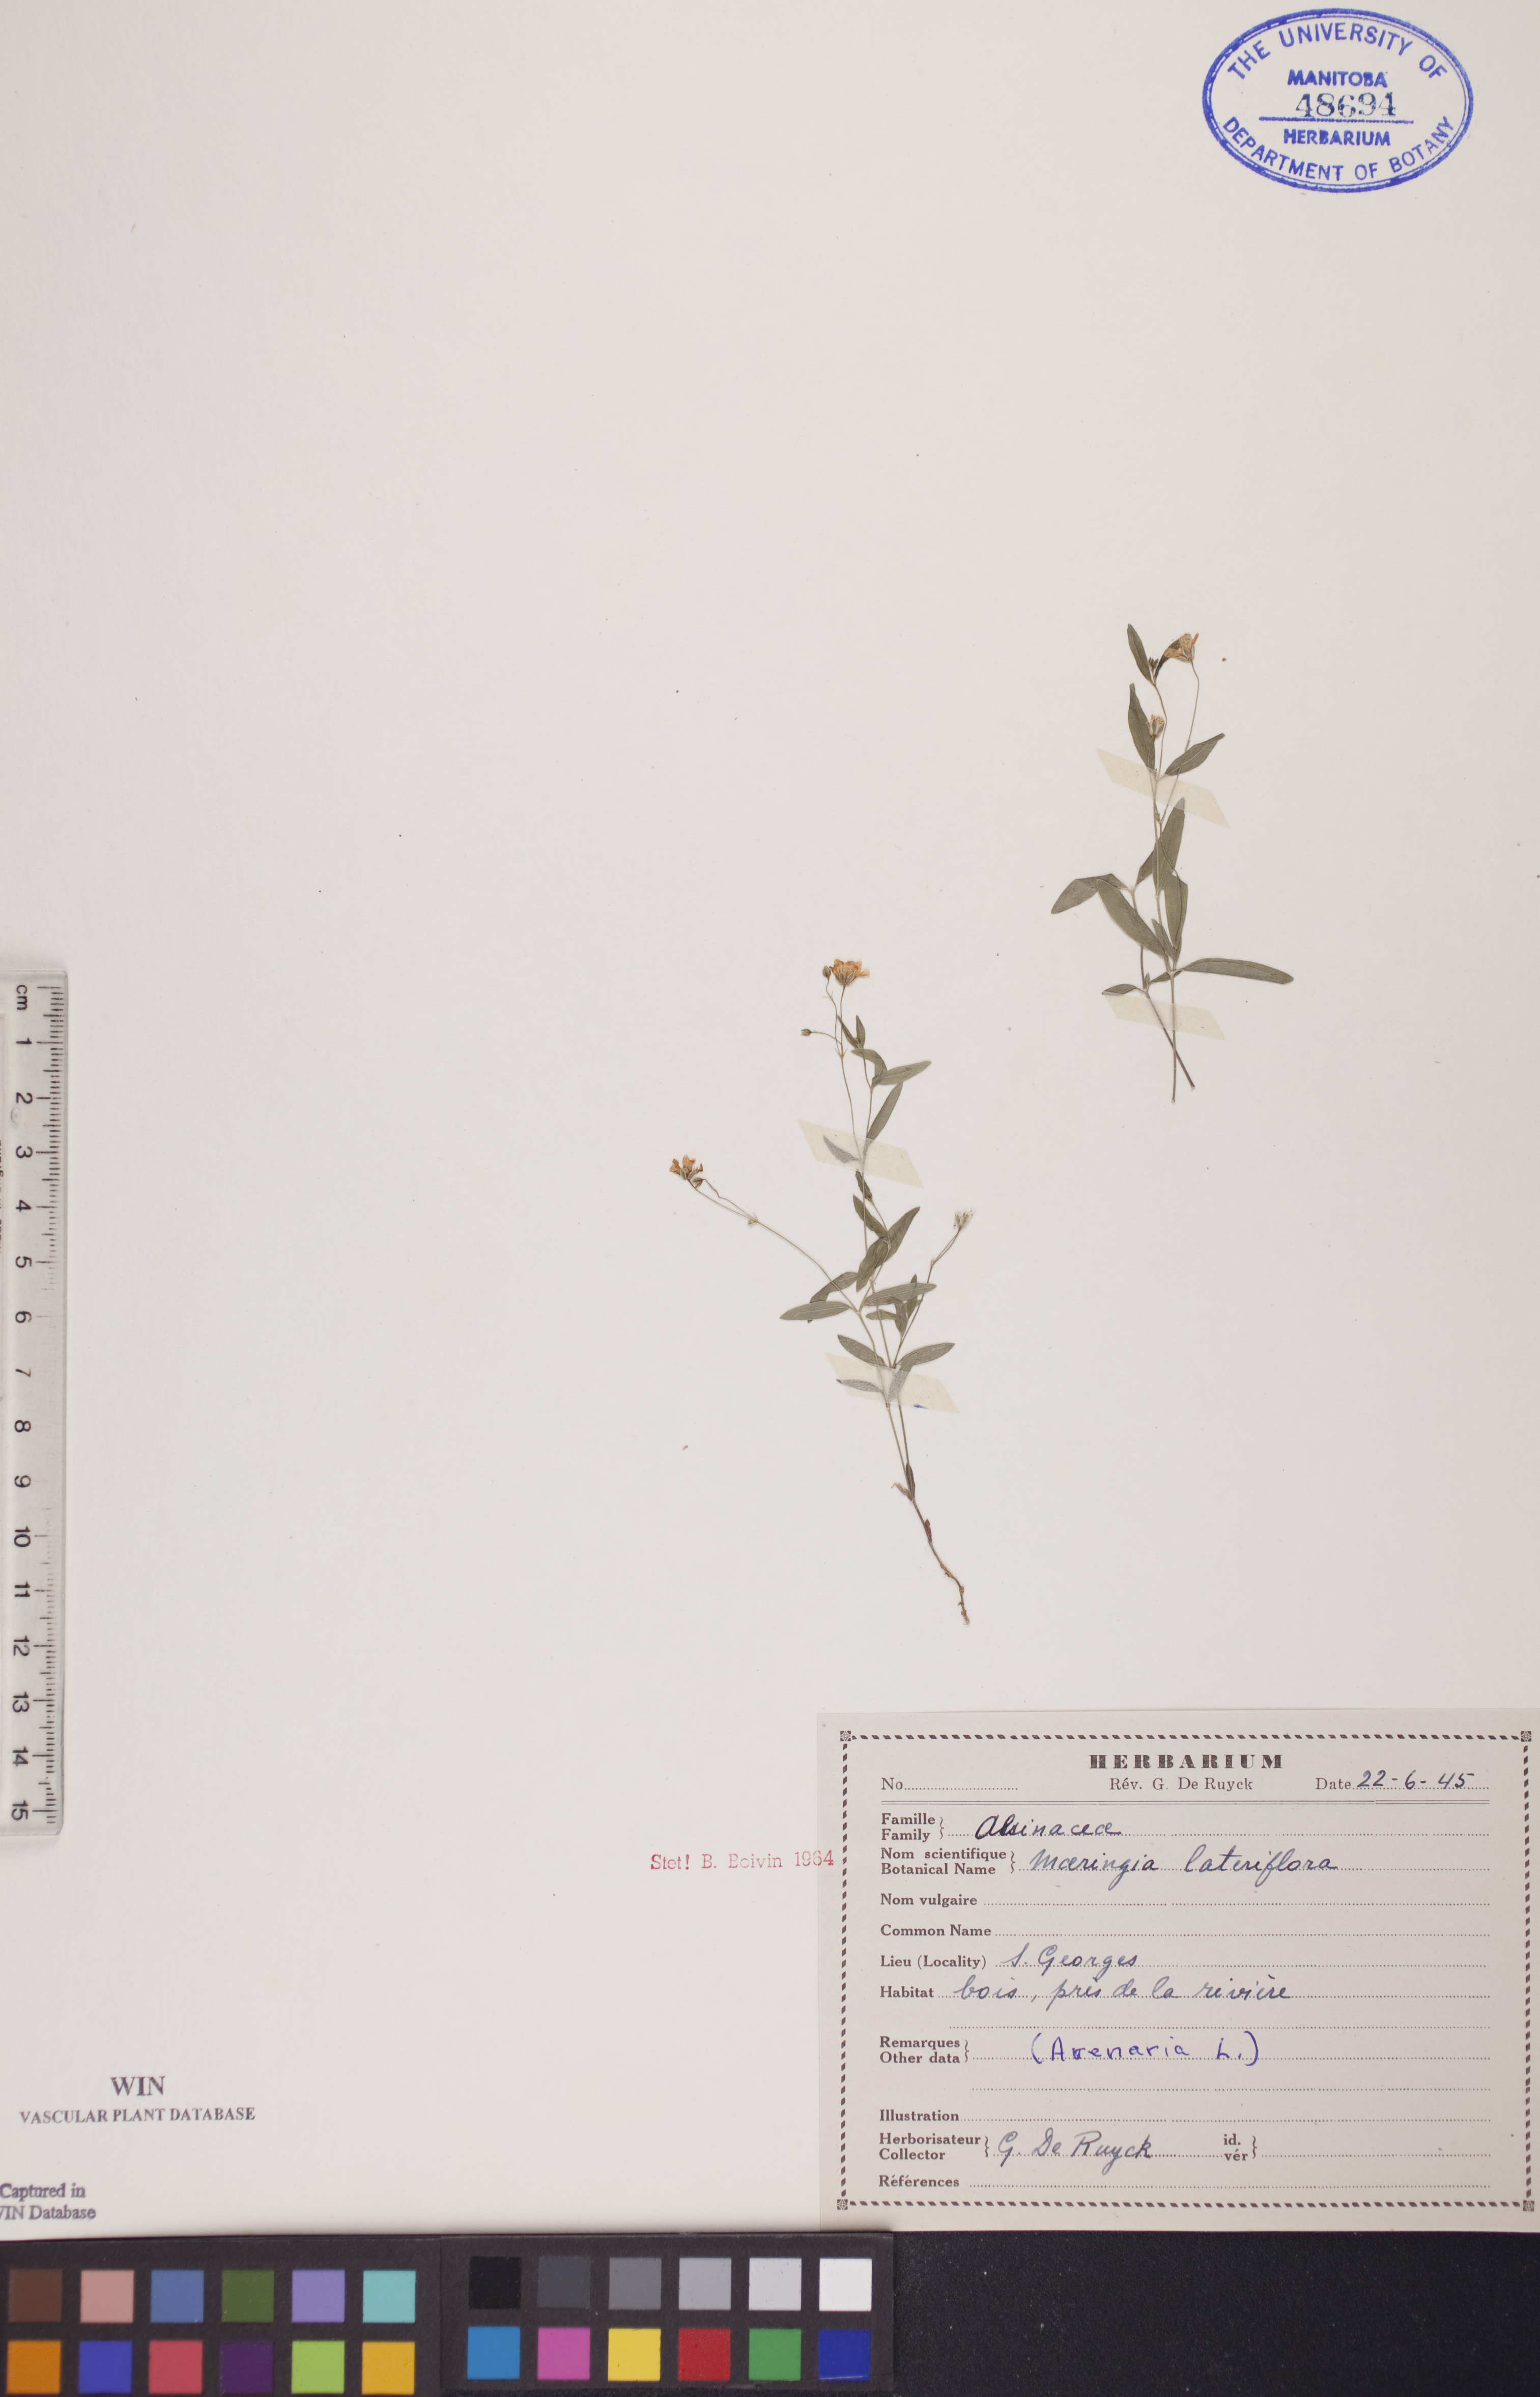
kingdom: Plantae
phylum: Tracheophyta
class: Magnoliopsida
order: Caryophyllales
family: Caryophyllaceae
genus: Moehringia
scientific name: Moehringia lateriflora
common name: Blunt-leaved sandwort
